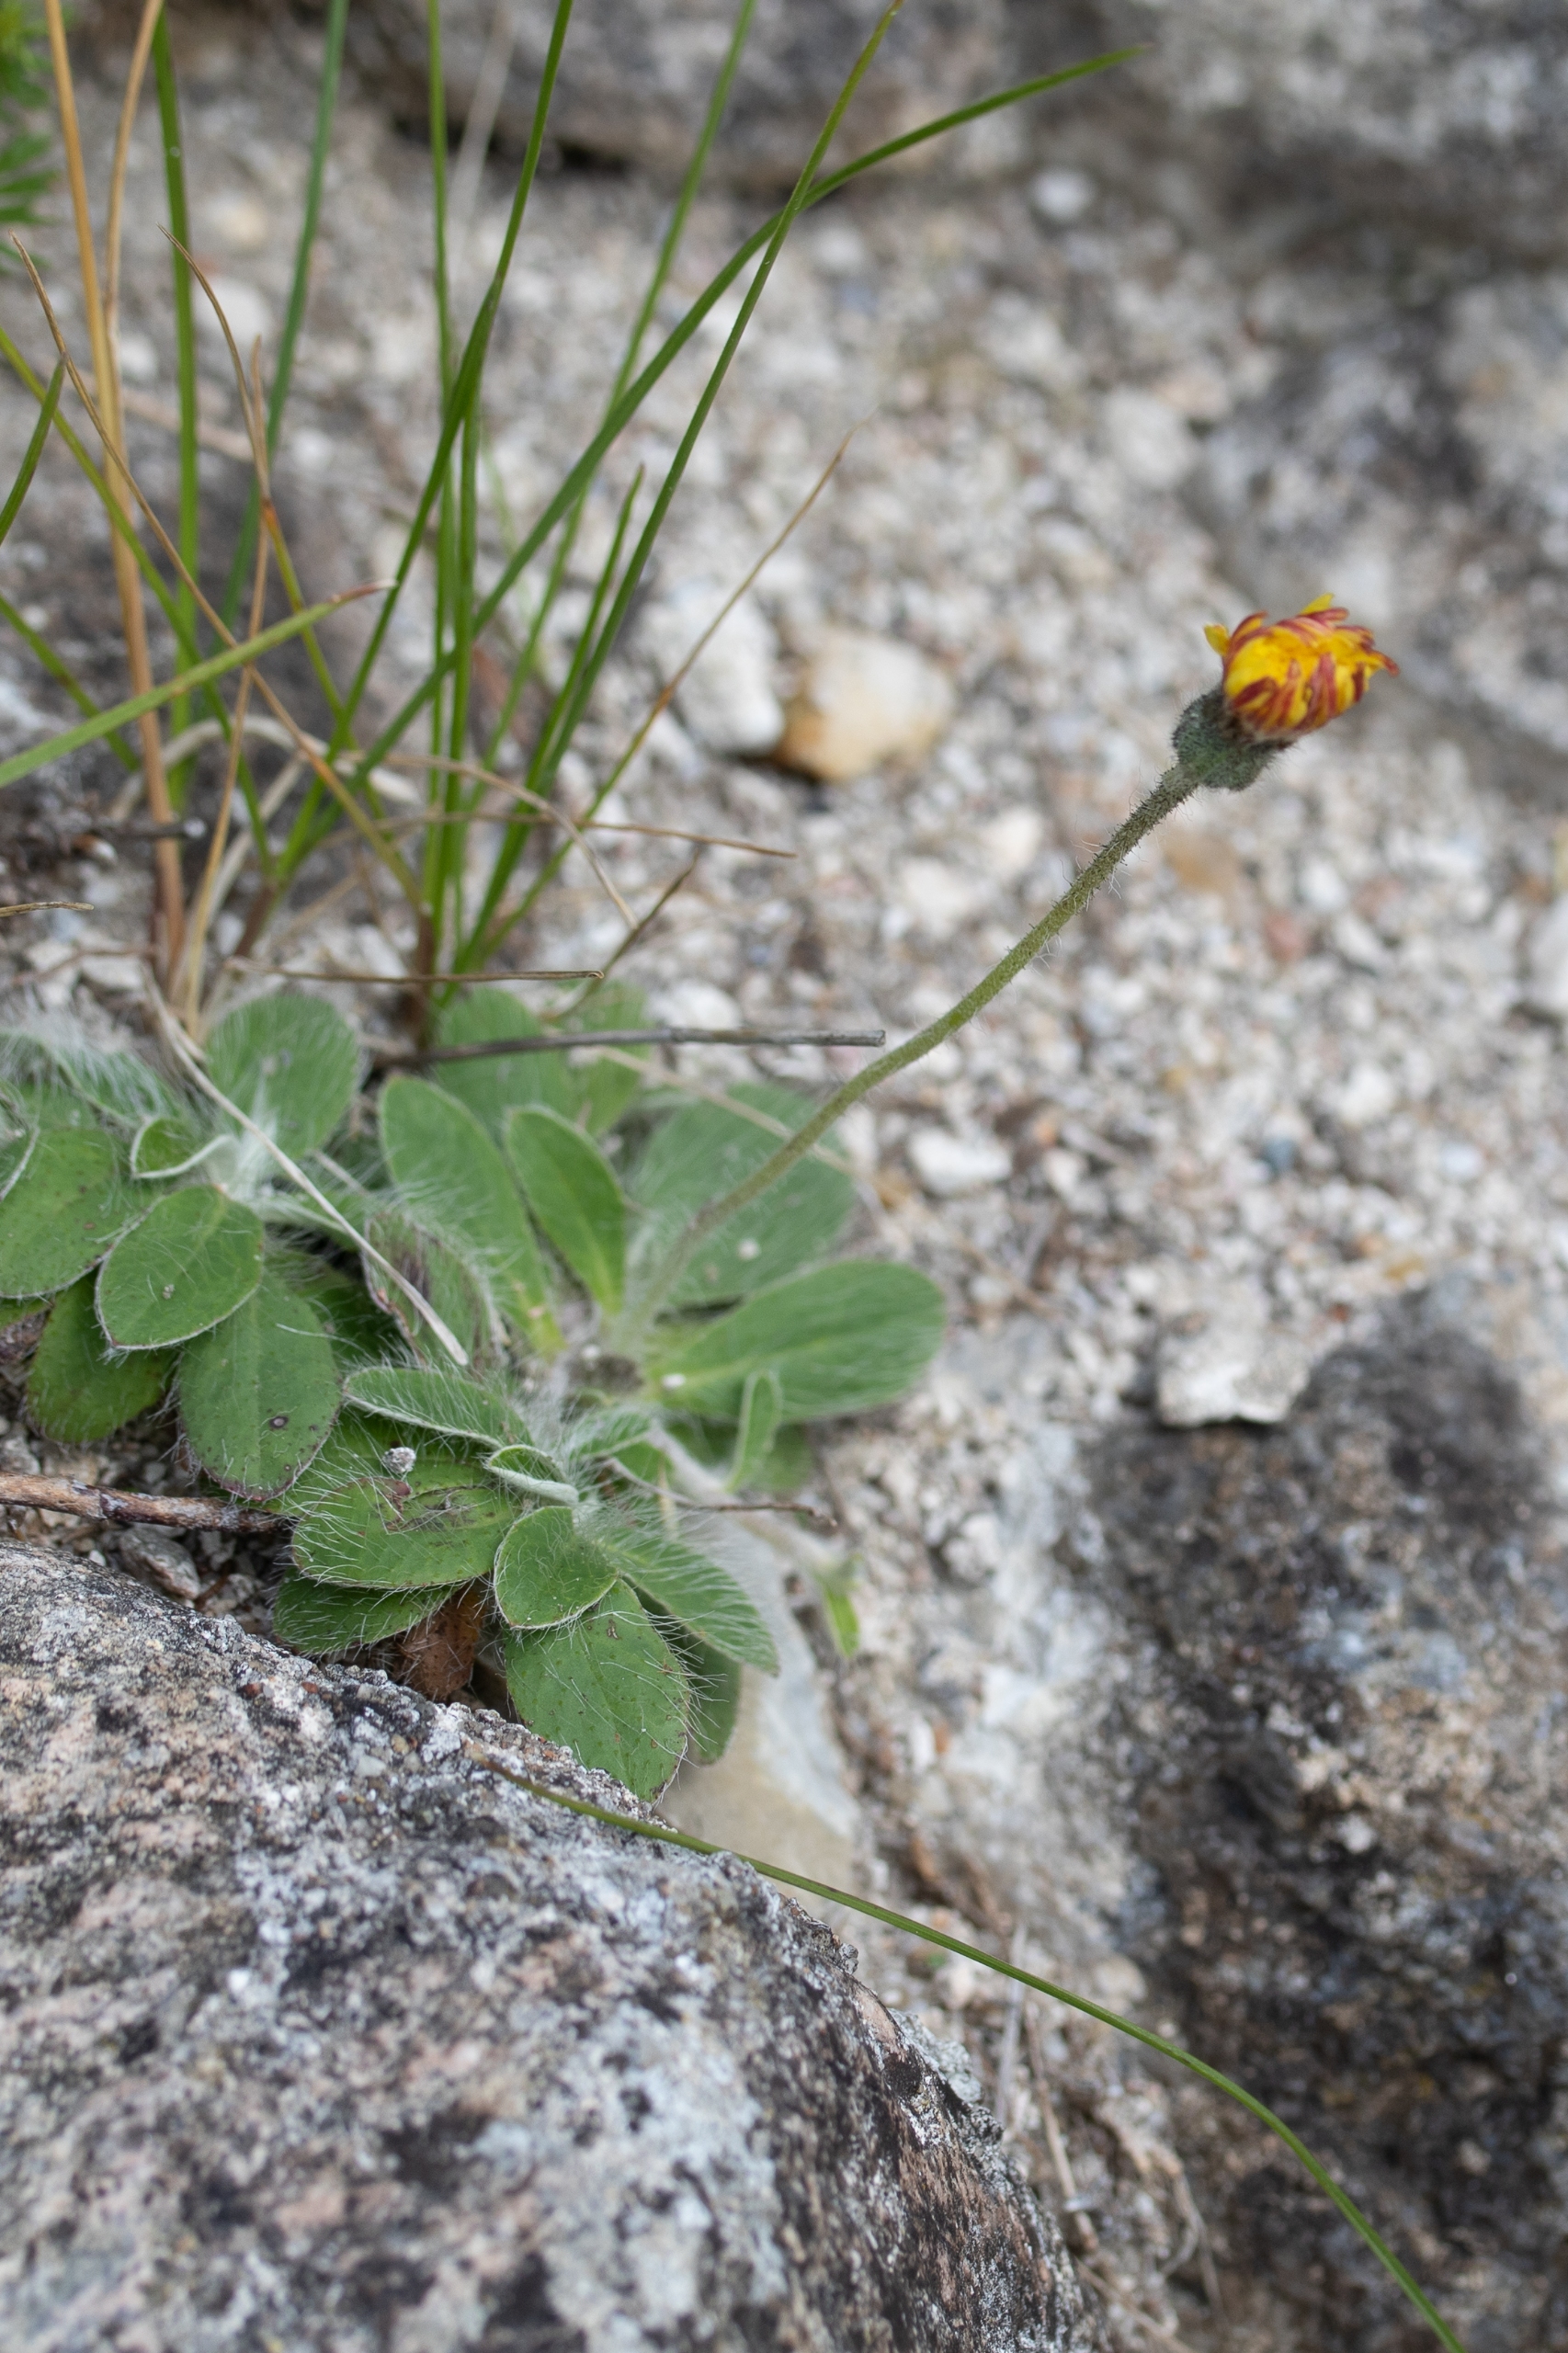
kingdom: Plantae
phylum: Tracheophyta
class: Magnoliopsida
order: Asterales
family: Asteraceae
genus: Pilosella
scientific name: Pilosella officinarum
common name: Håret høgeurt
